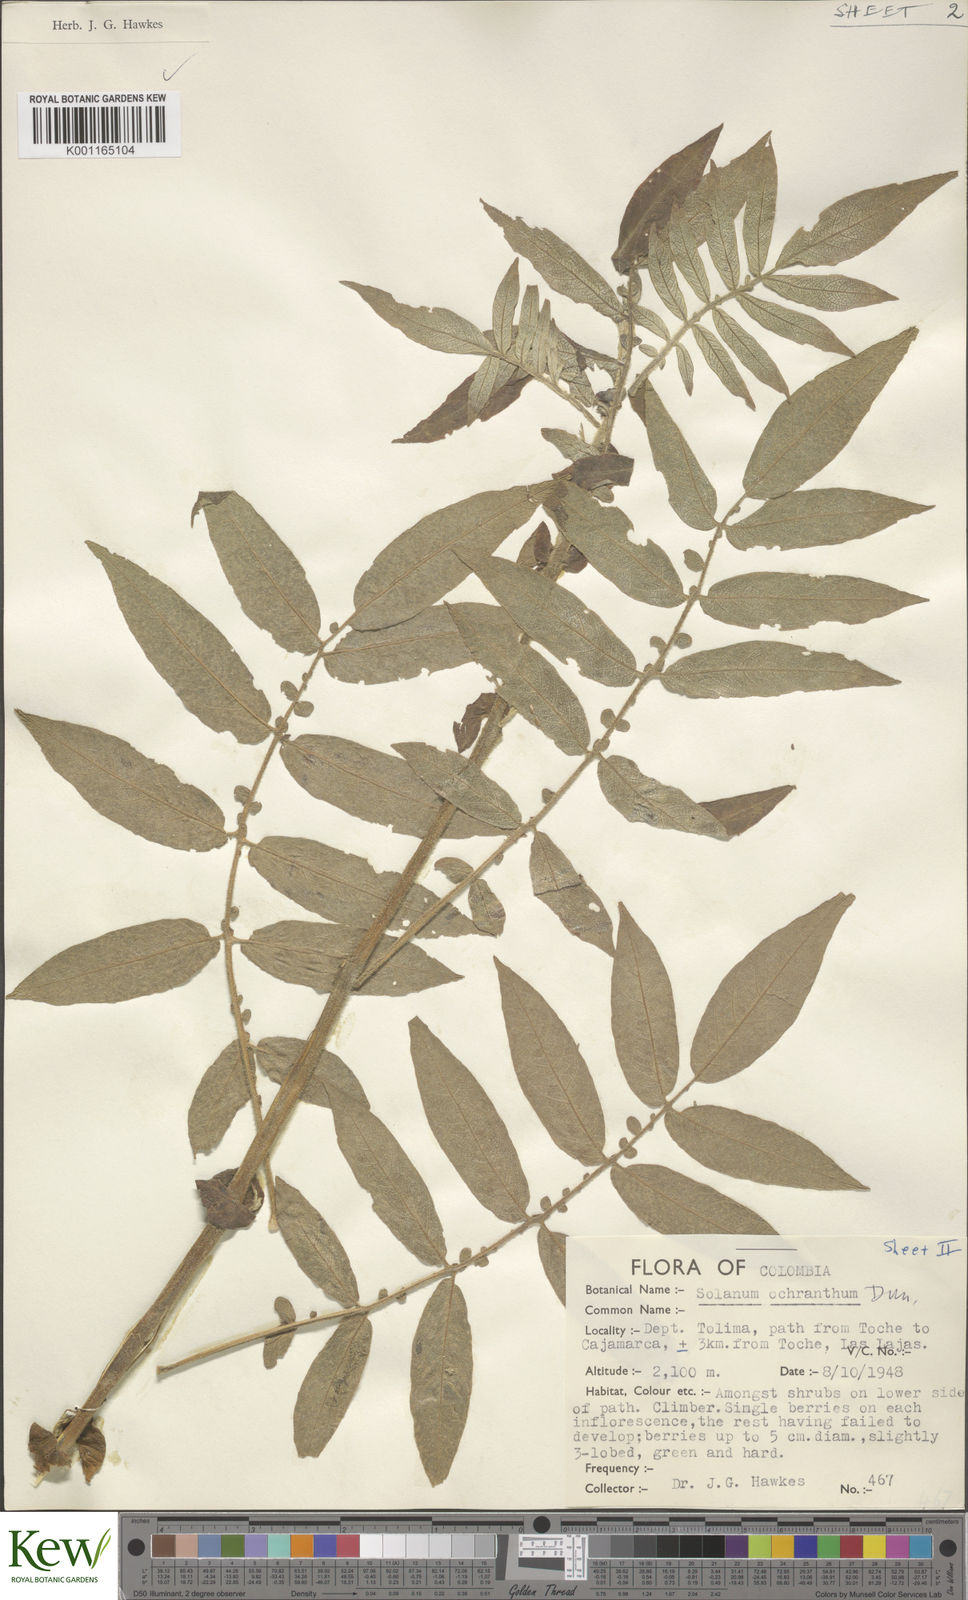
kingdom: Plantae
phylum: Tracheophyta
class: Magnoliopsida
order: Solanales
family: Solanaceae
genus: Solanum
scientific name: Solanum ochranthum
